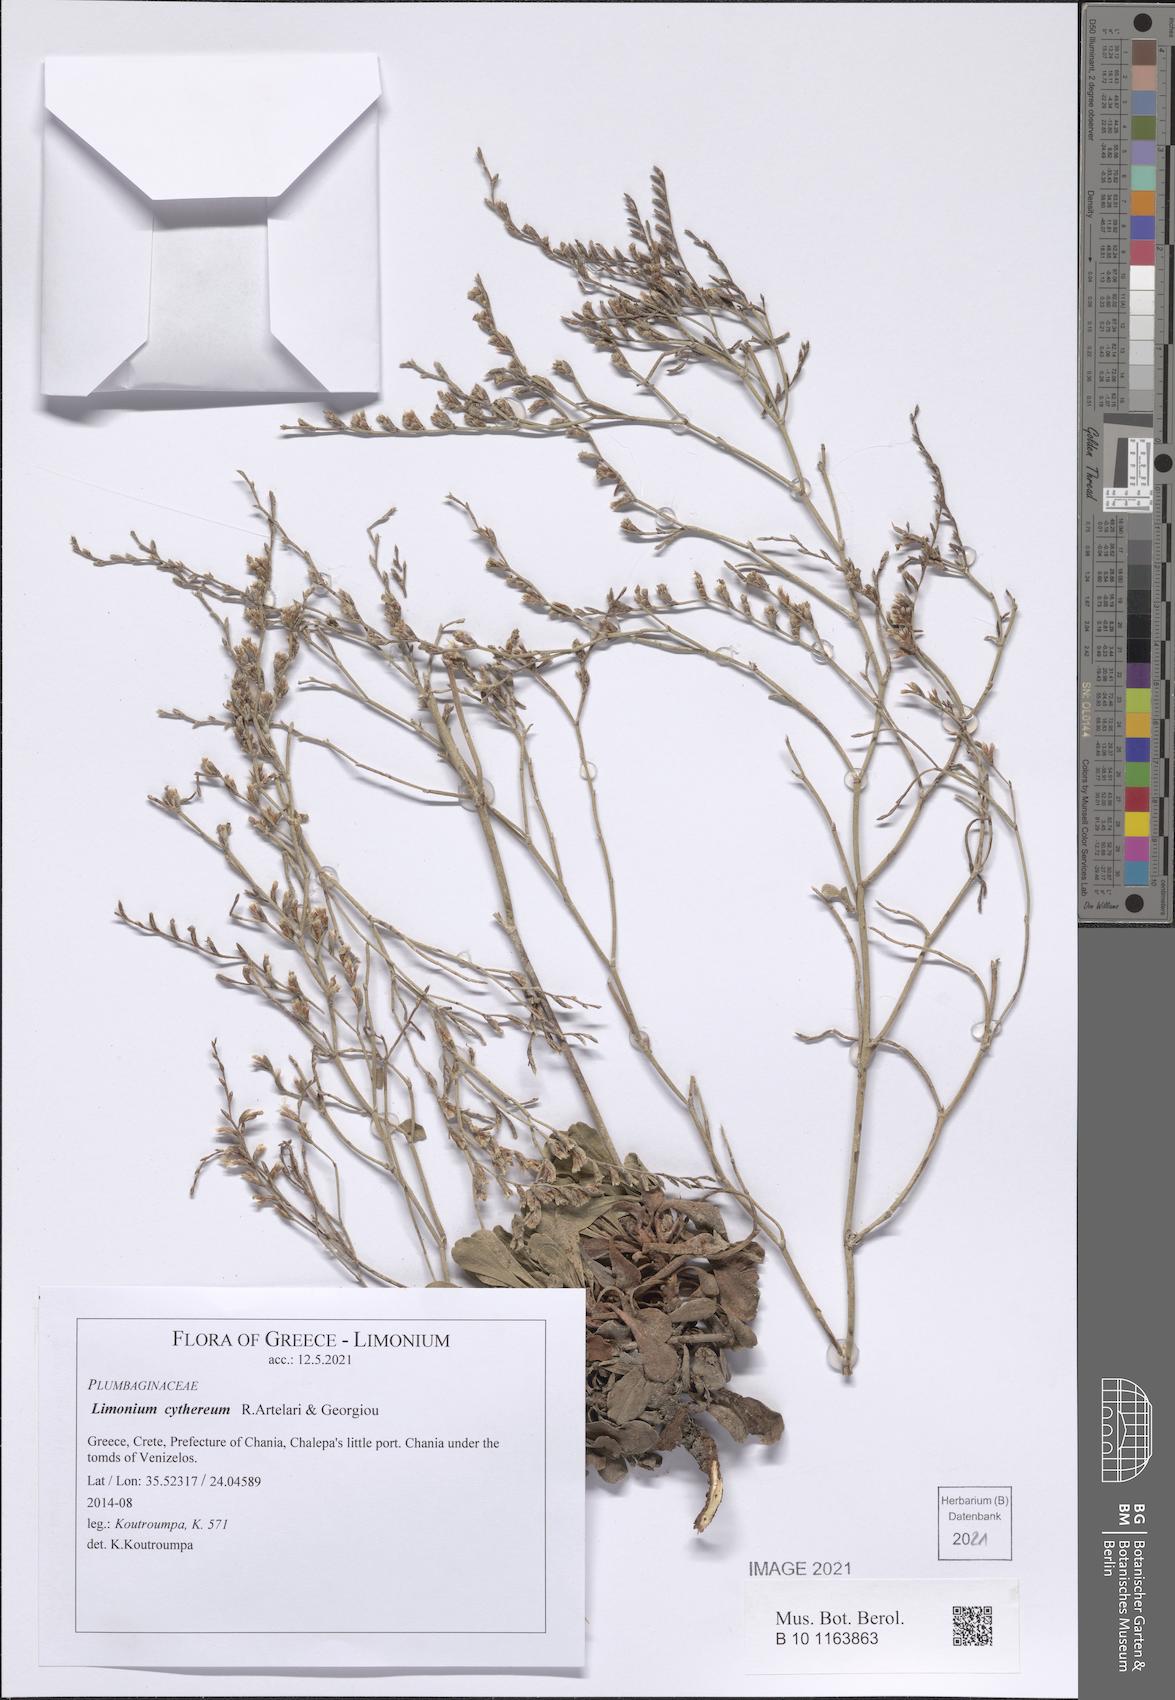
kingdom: Plantae
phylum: Tracheophyta
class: Magnoliopsida
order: Caryophyllales
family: Plumbaginaceae
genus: Limonium
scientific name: Limonium cythereum
